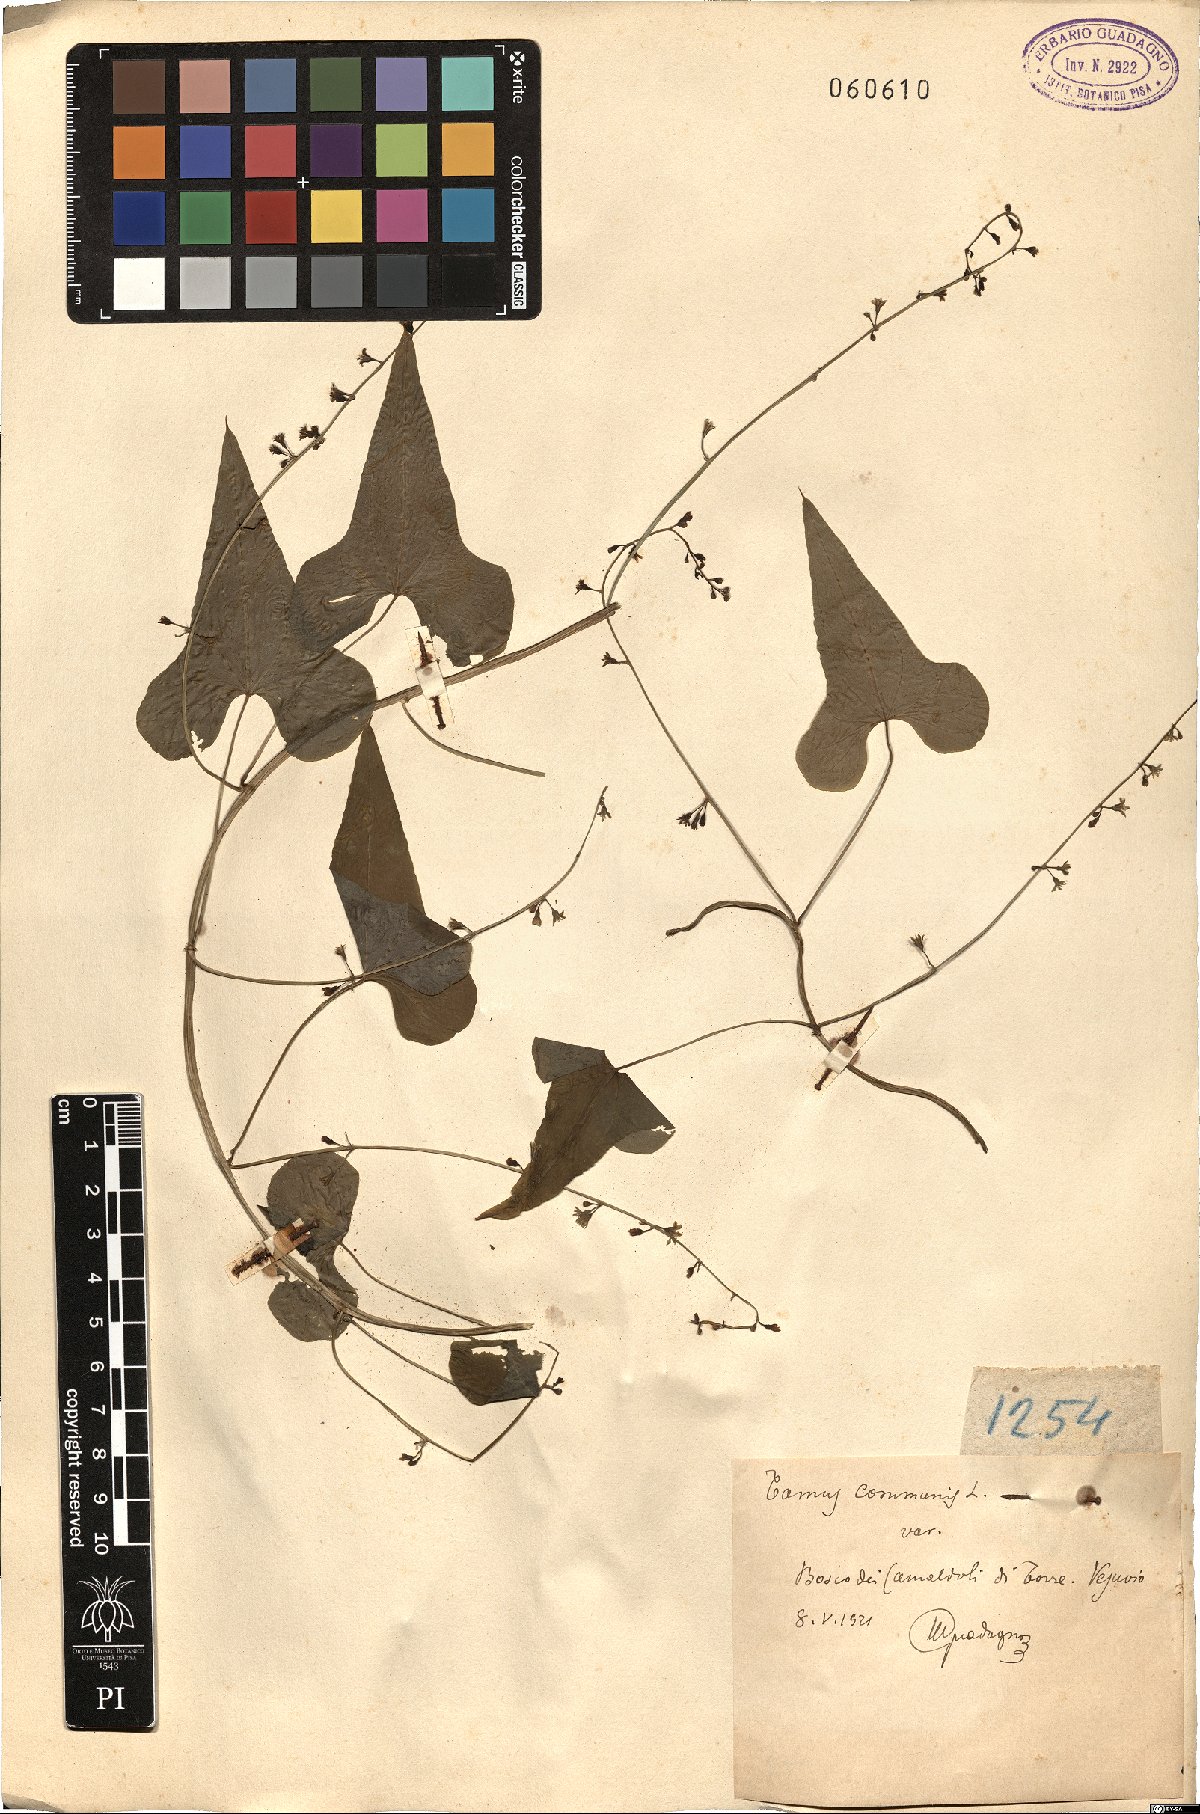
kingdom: Plantae
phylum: Tracheophyta
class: Liliopsida
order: Dioscoreales
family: Dioscoreaceae
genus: Dioscorea
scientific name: Dioscorea communis
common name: Black-bindweed
